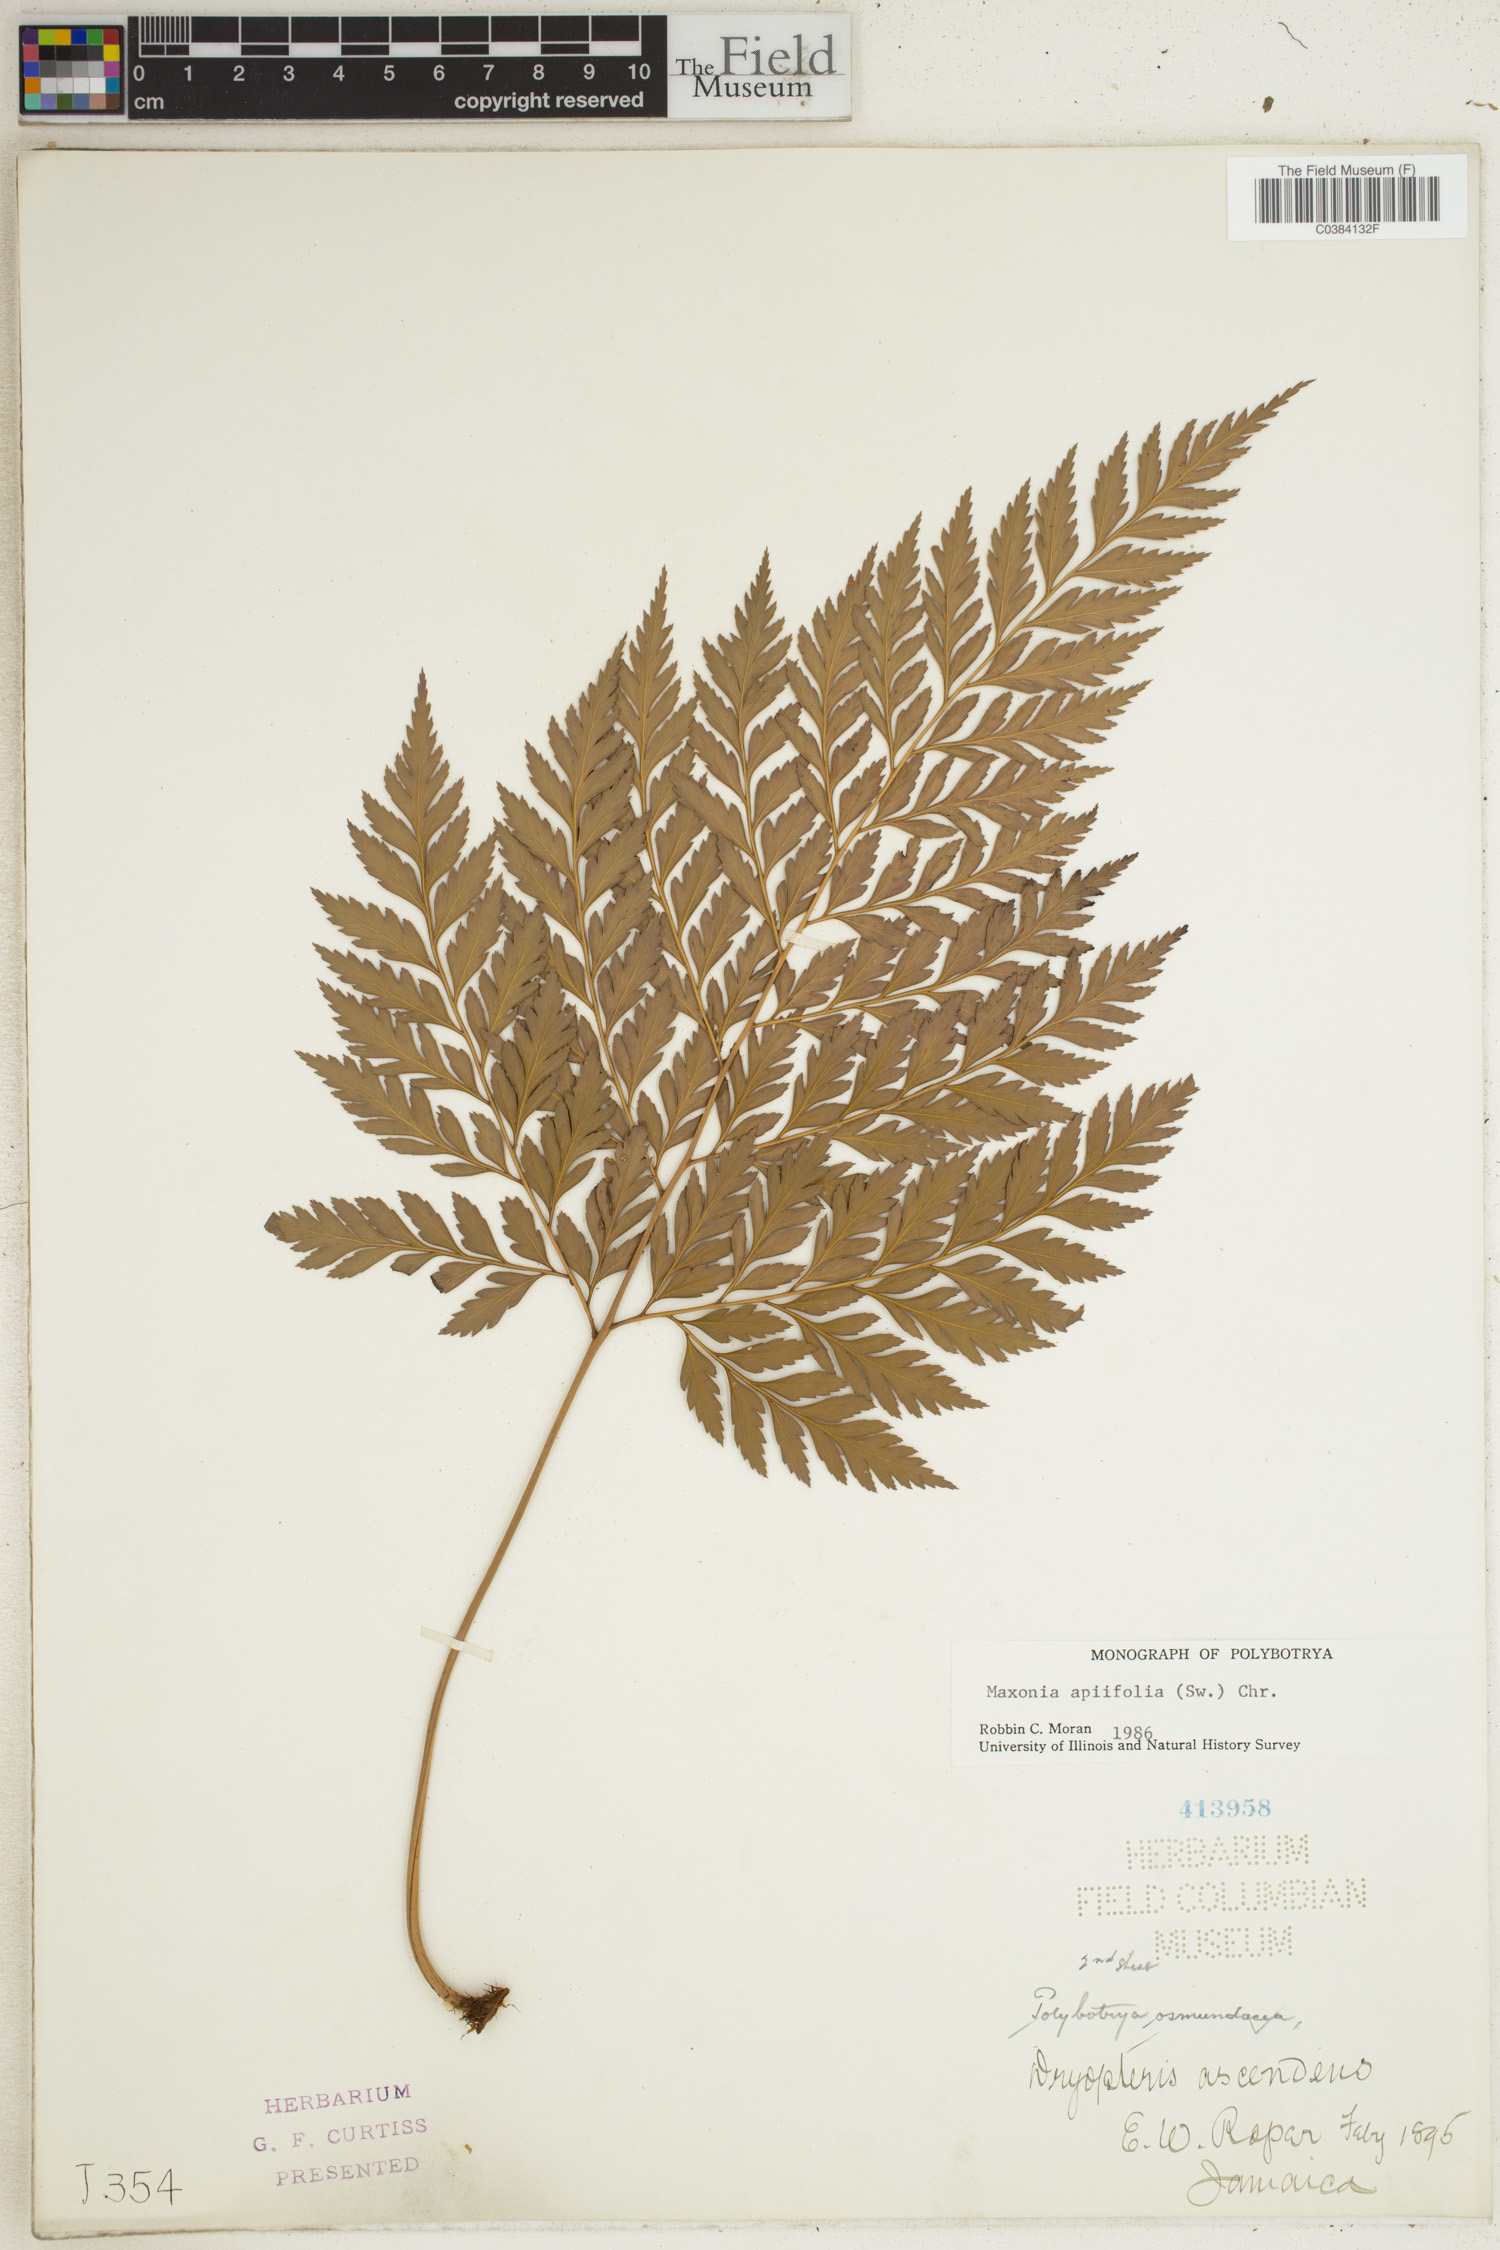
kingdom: Plantae
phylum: Tracheophyta
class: Polypodiopsida
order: Polypodiales
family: Dryopteridaceae
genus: Maxonia
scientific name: Maxonia apiifolia
